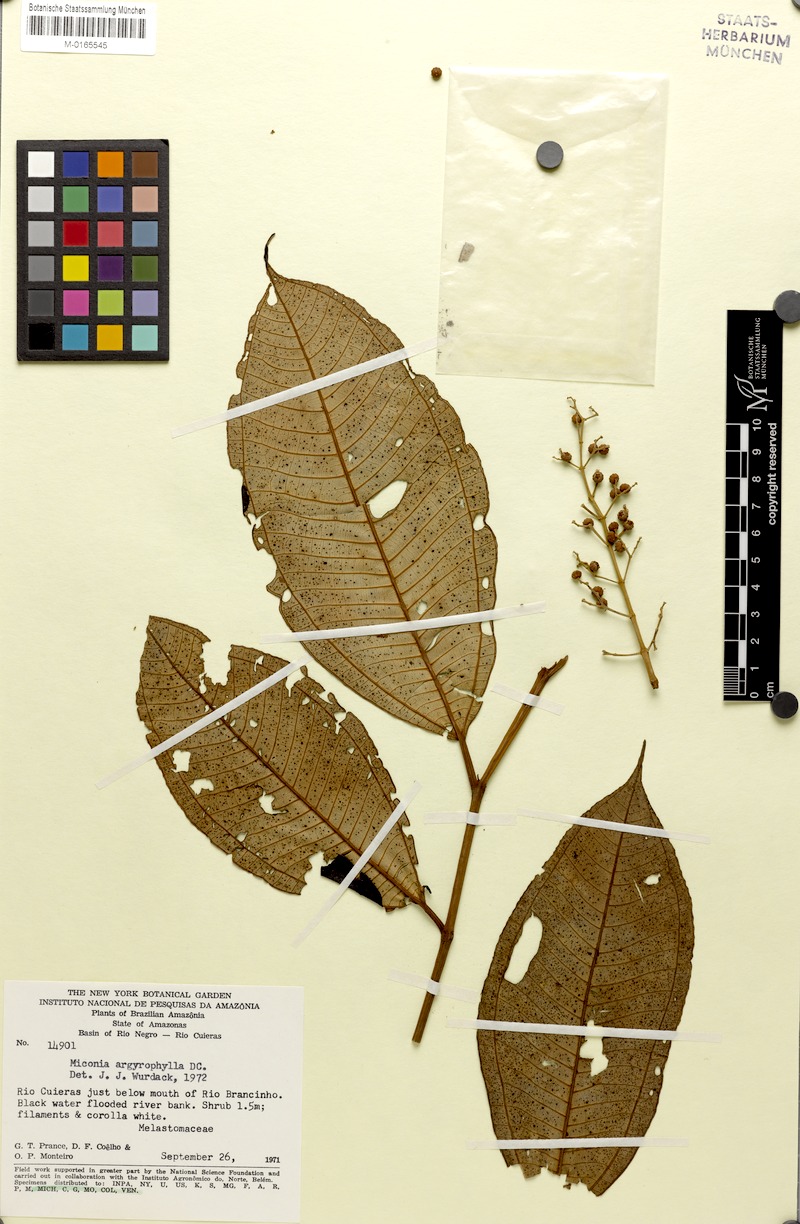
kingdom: Plantae
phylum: Tracheophyta
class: Magnoliopsida
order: Myrtales
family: Melastomataceae
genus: Miconia
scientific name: Miconia argyrophylla
